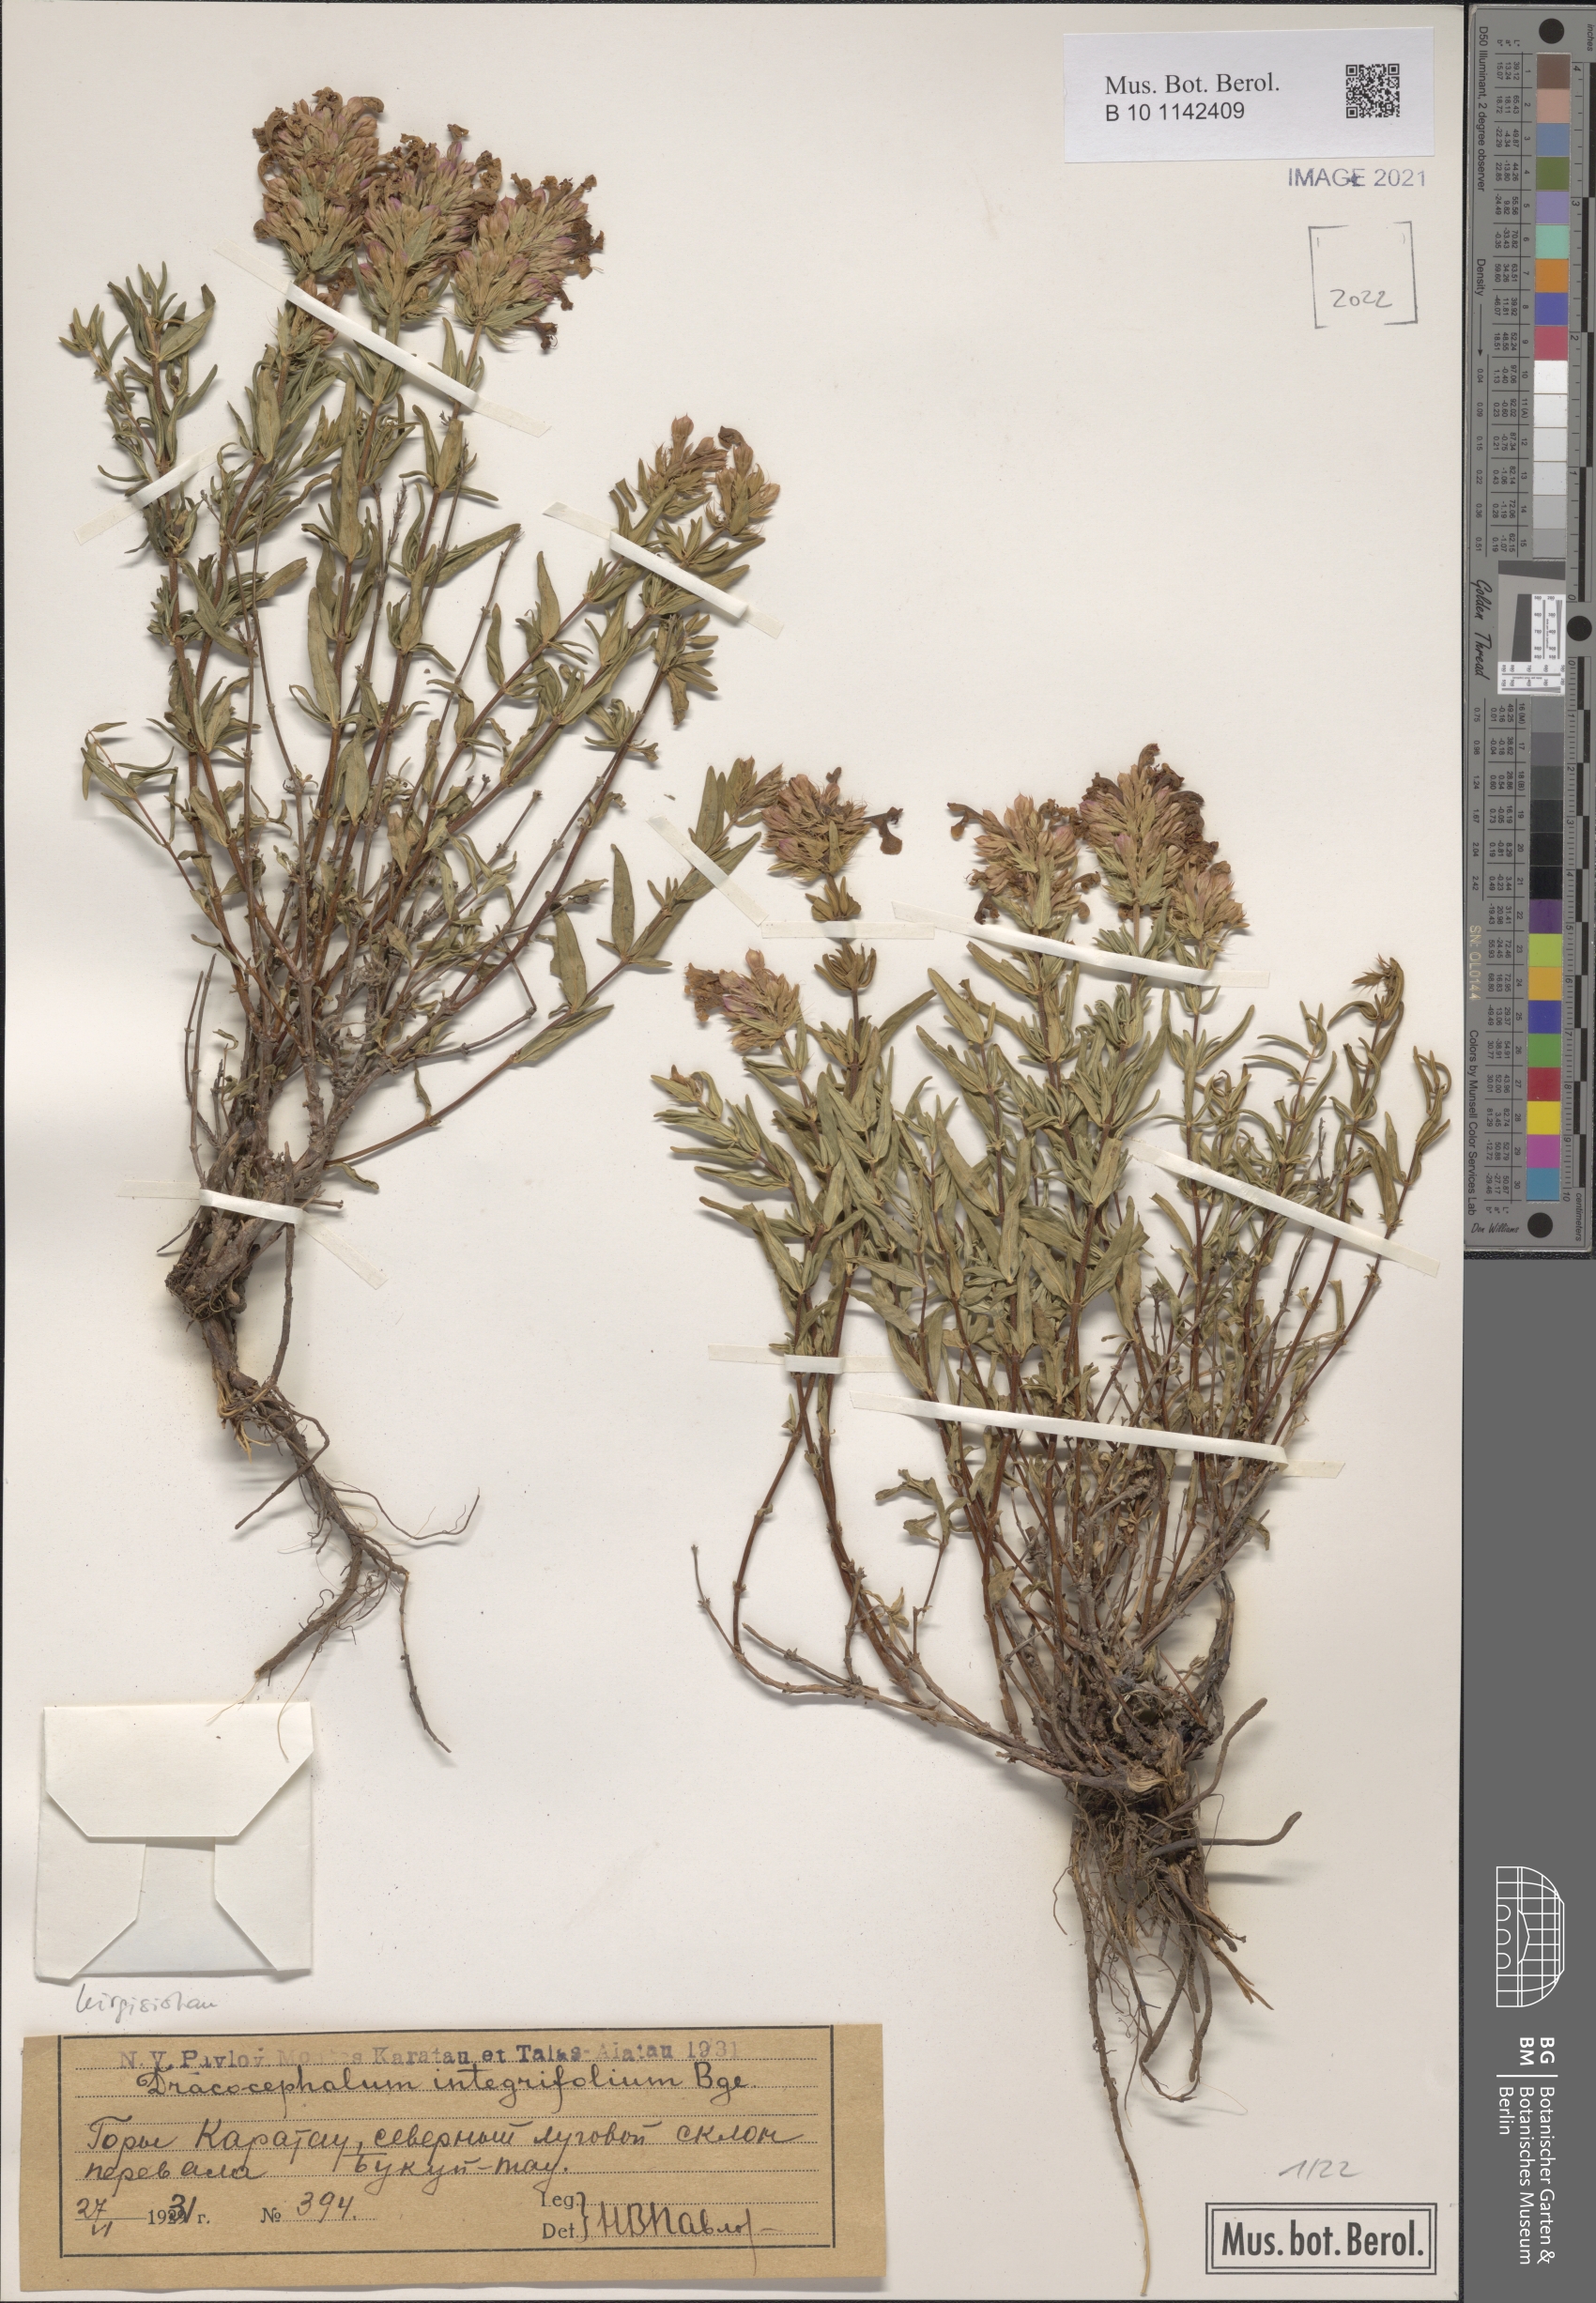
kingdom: Plantae
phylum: Tracheophyta
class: Magnoliopsida
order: Lamiales
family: Lamiaceae
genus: Dracocephalum
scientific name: Dracocephalum integrifolium
